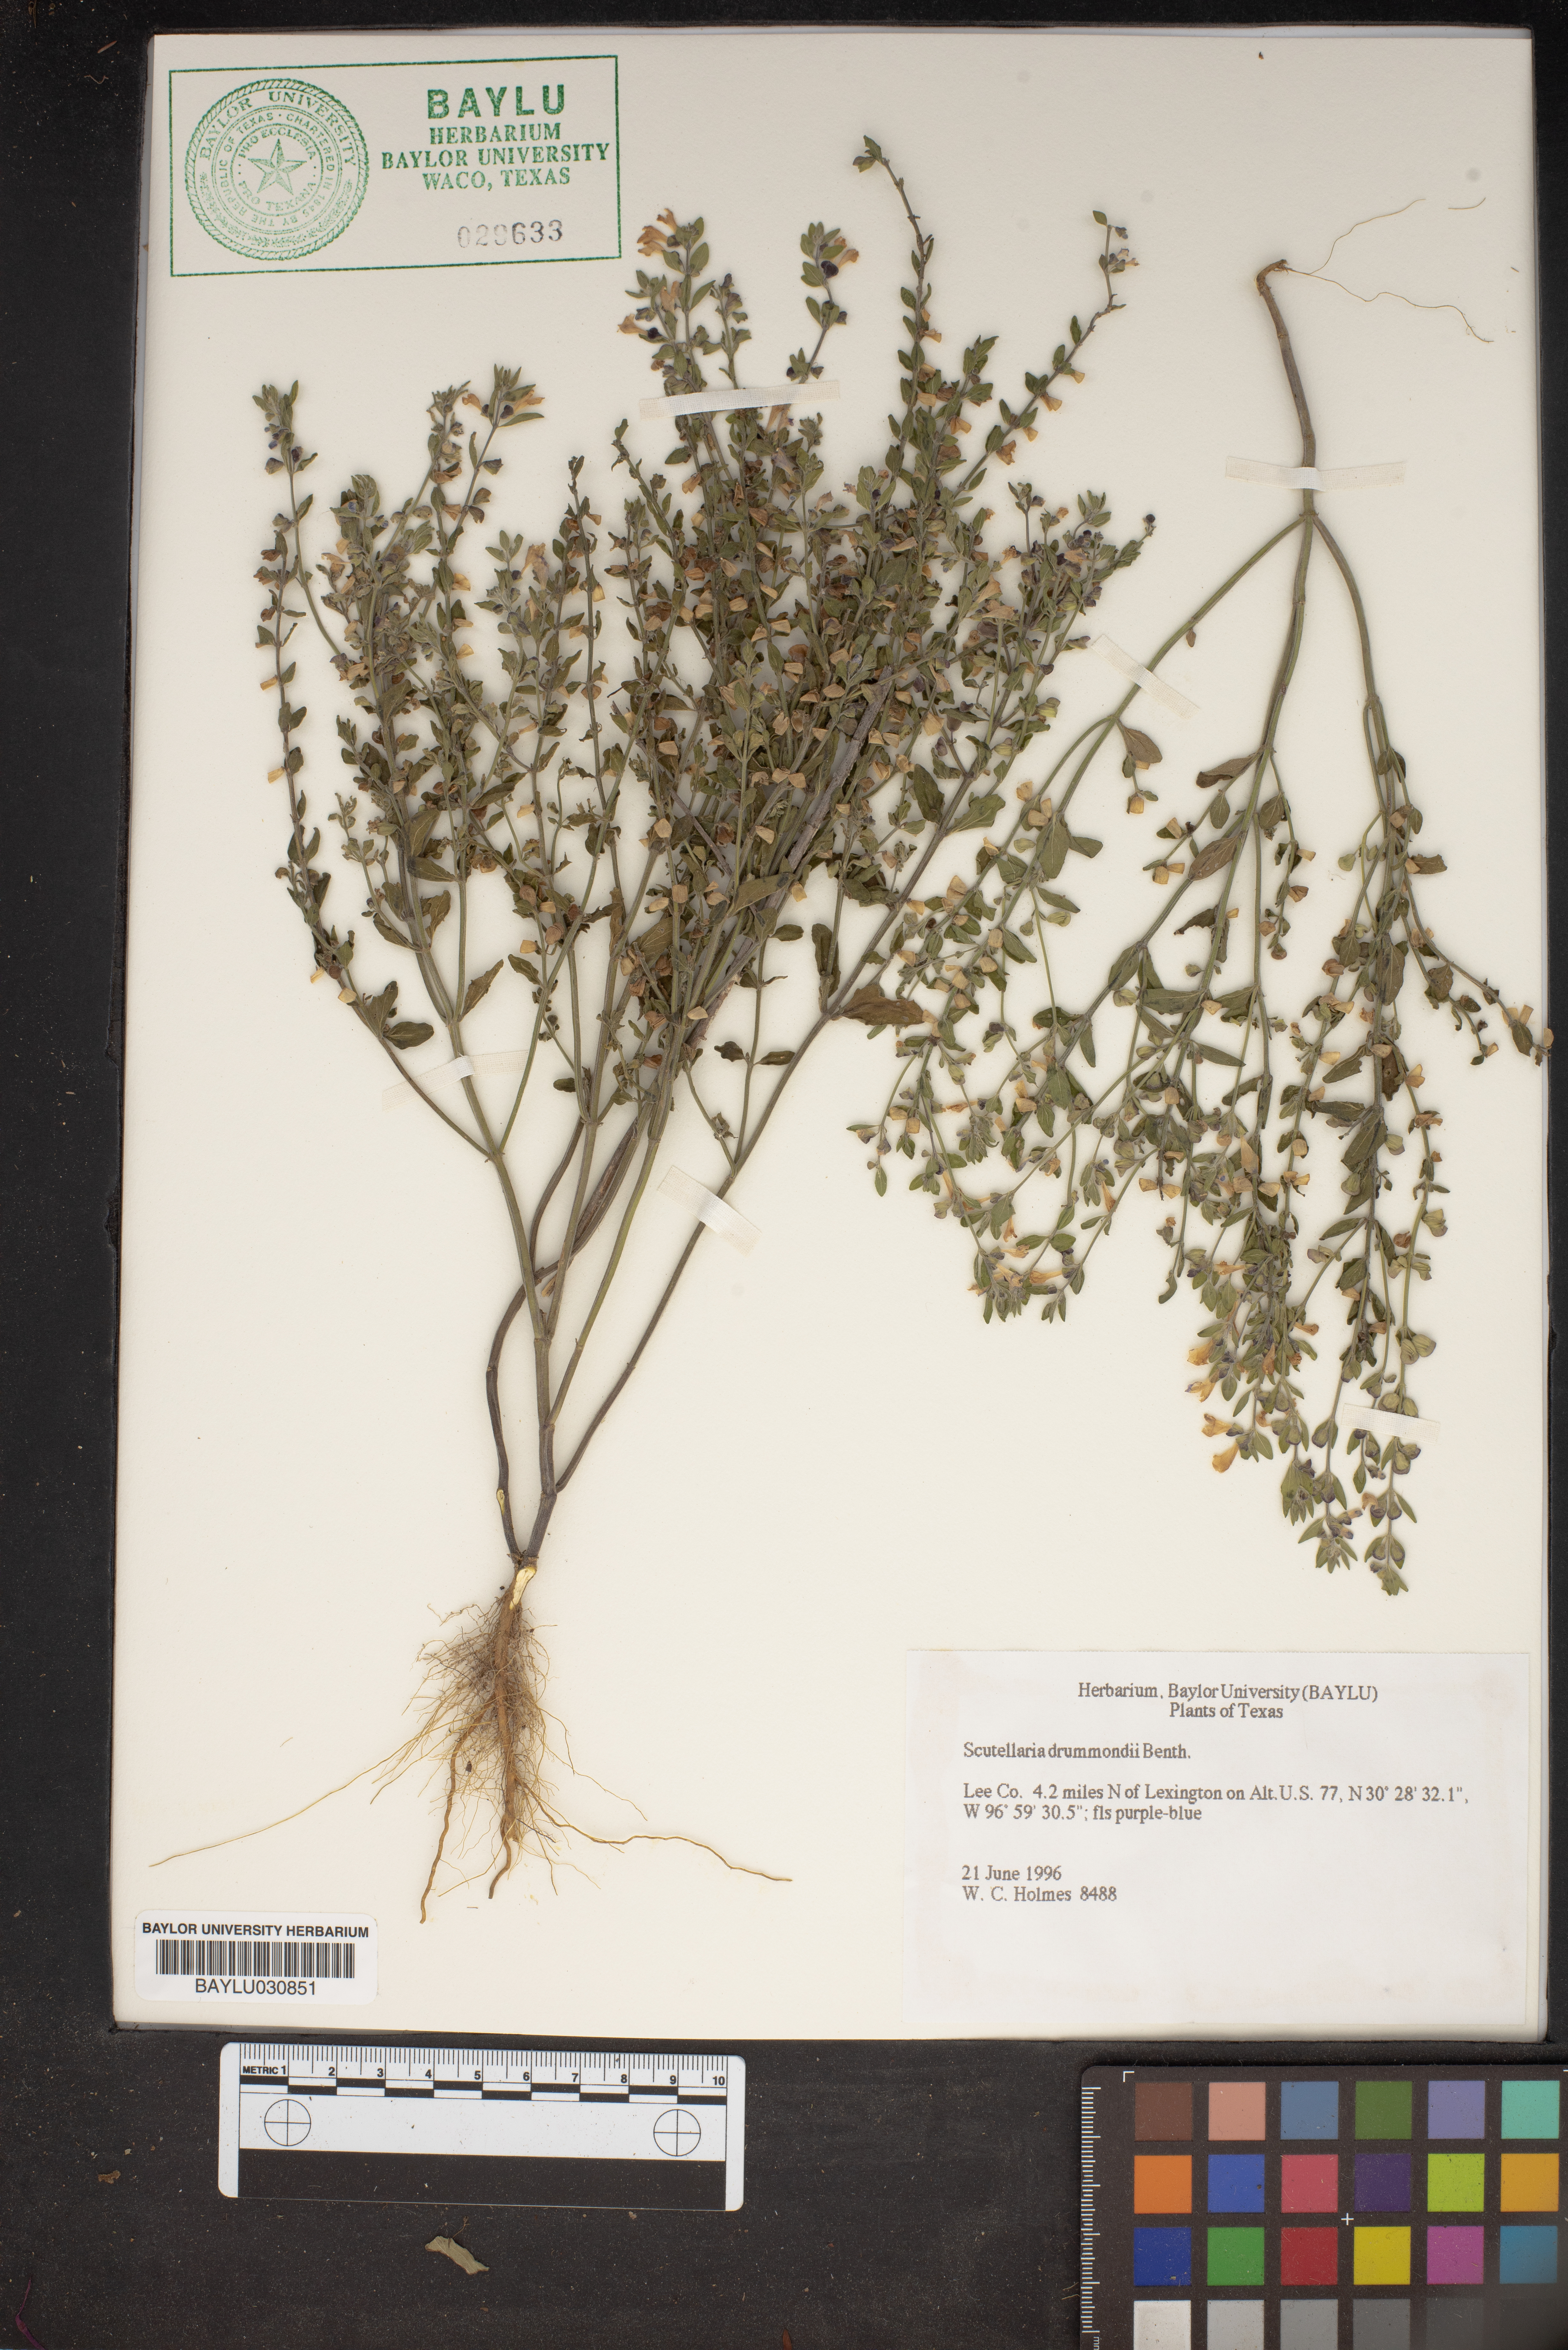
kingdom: Plantae
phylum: Tracheophyta
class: Magnoliopsida
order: Lamiales
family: Lamiaceae
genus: Scutellaria
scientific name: Scutellaria drummondii
